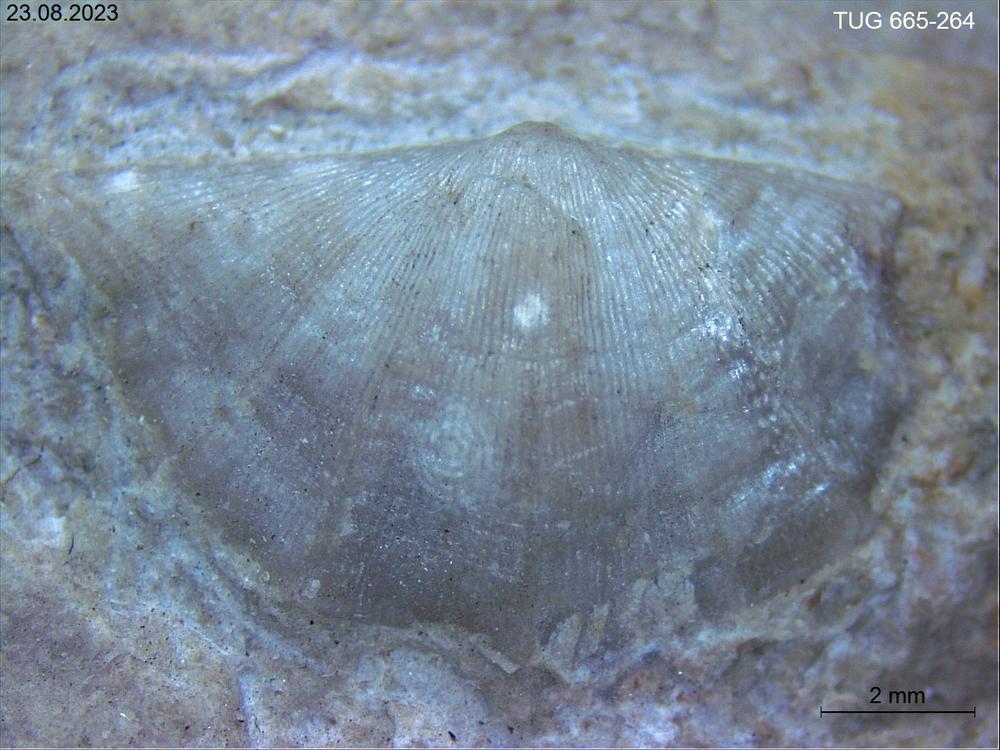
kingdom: Animalia
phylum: Brachiopoda
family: Sowerbyellidae
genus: Anisopleurella
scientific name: Anisopleurella Plectambonites quinquecostata
